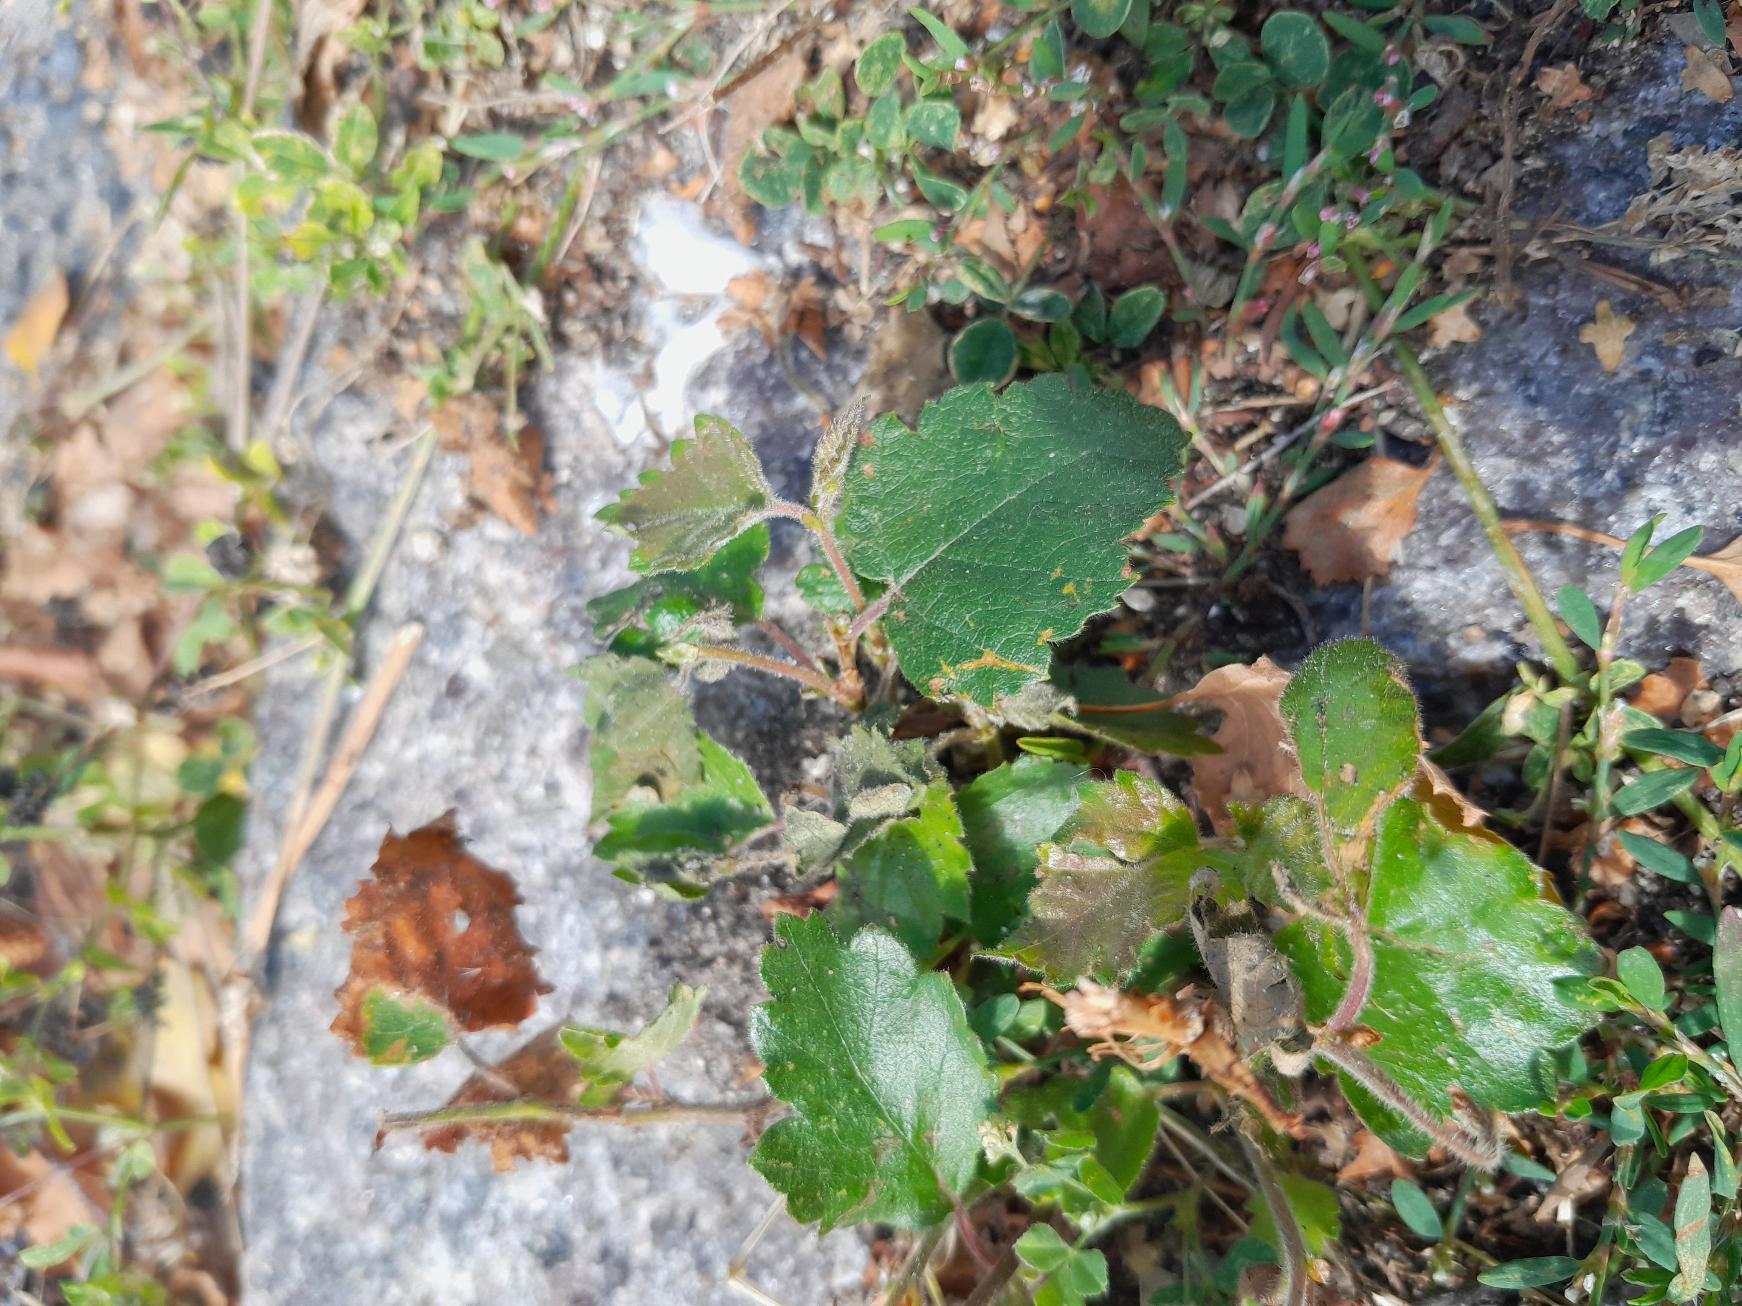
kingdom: Plantae
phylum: Tracheophyta
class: Magnoliopsida
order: Fagales
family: Betulaceae
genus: Betula
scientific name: Betula
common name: Birkeslægten
